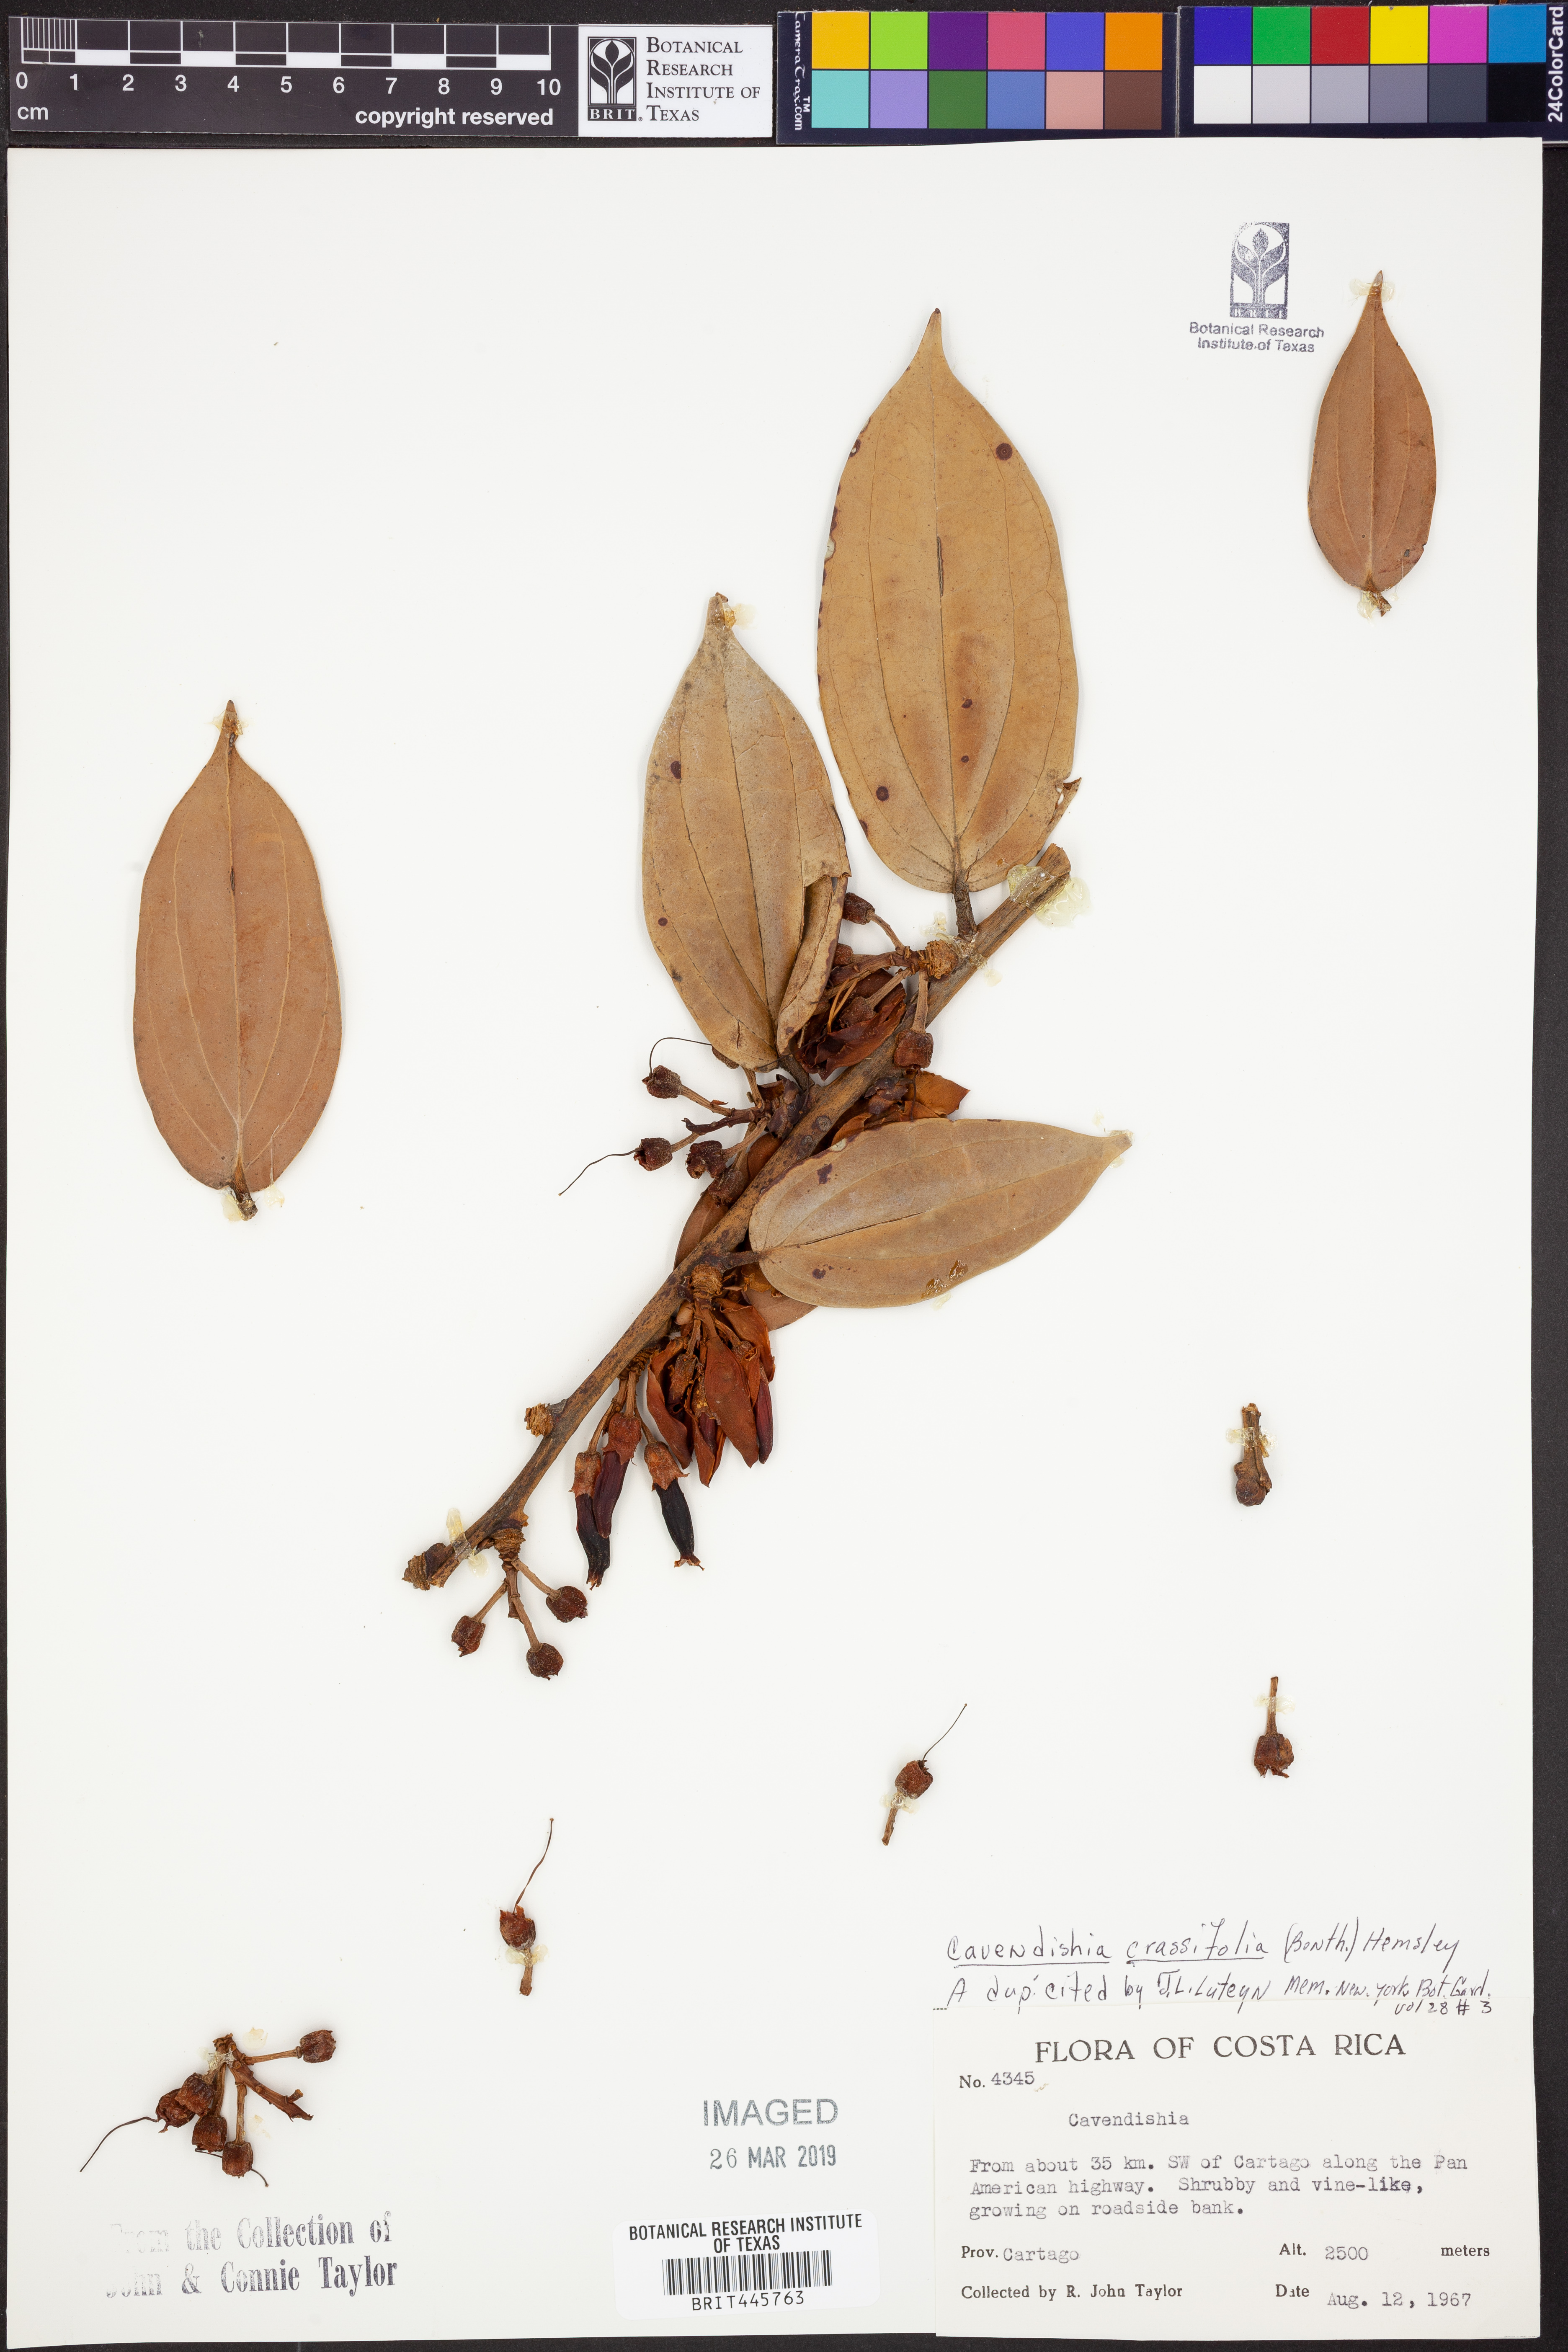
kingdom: Plantae
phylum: Tracheophyta
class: Magnoliopsida
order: Ericales
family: Ericaceae
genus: Cavendishia
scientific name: Cavendishia bracteata
